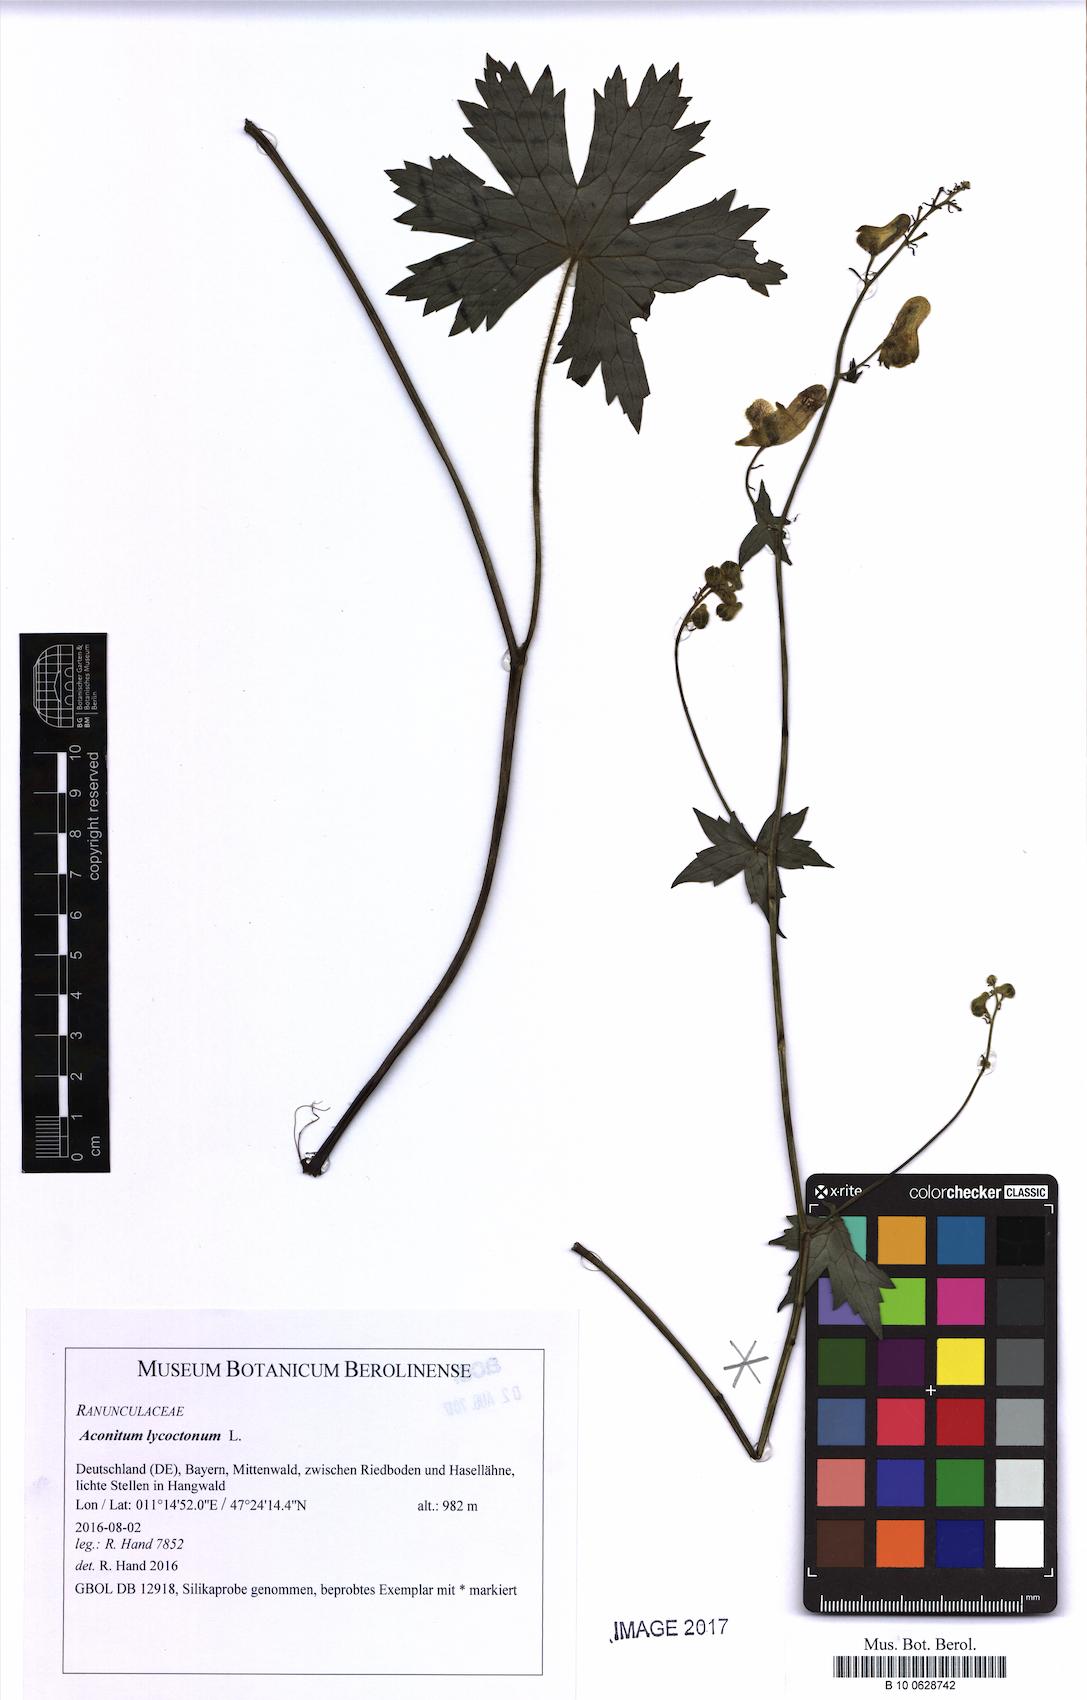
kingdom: Plantae
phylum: Tracheophyta
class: Magnoliopsida
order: Ranunculales
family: Ranunculaceae
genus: Aconitum
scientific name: Aconitum lycoctonum
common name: Wolf's-bane
